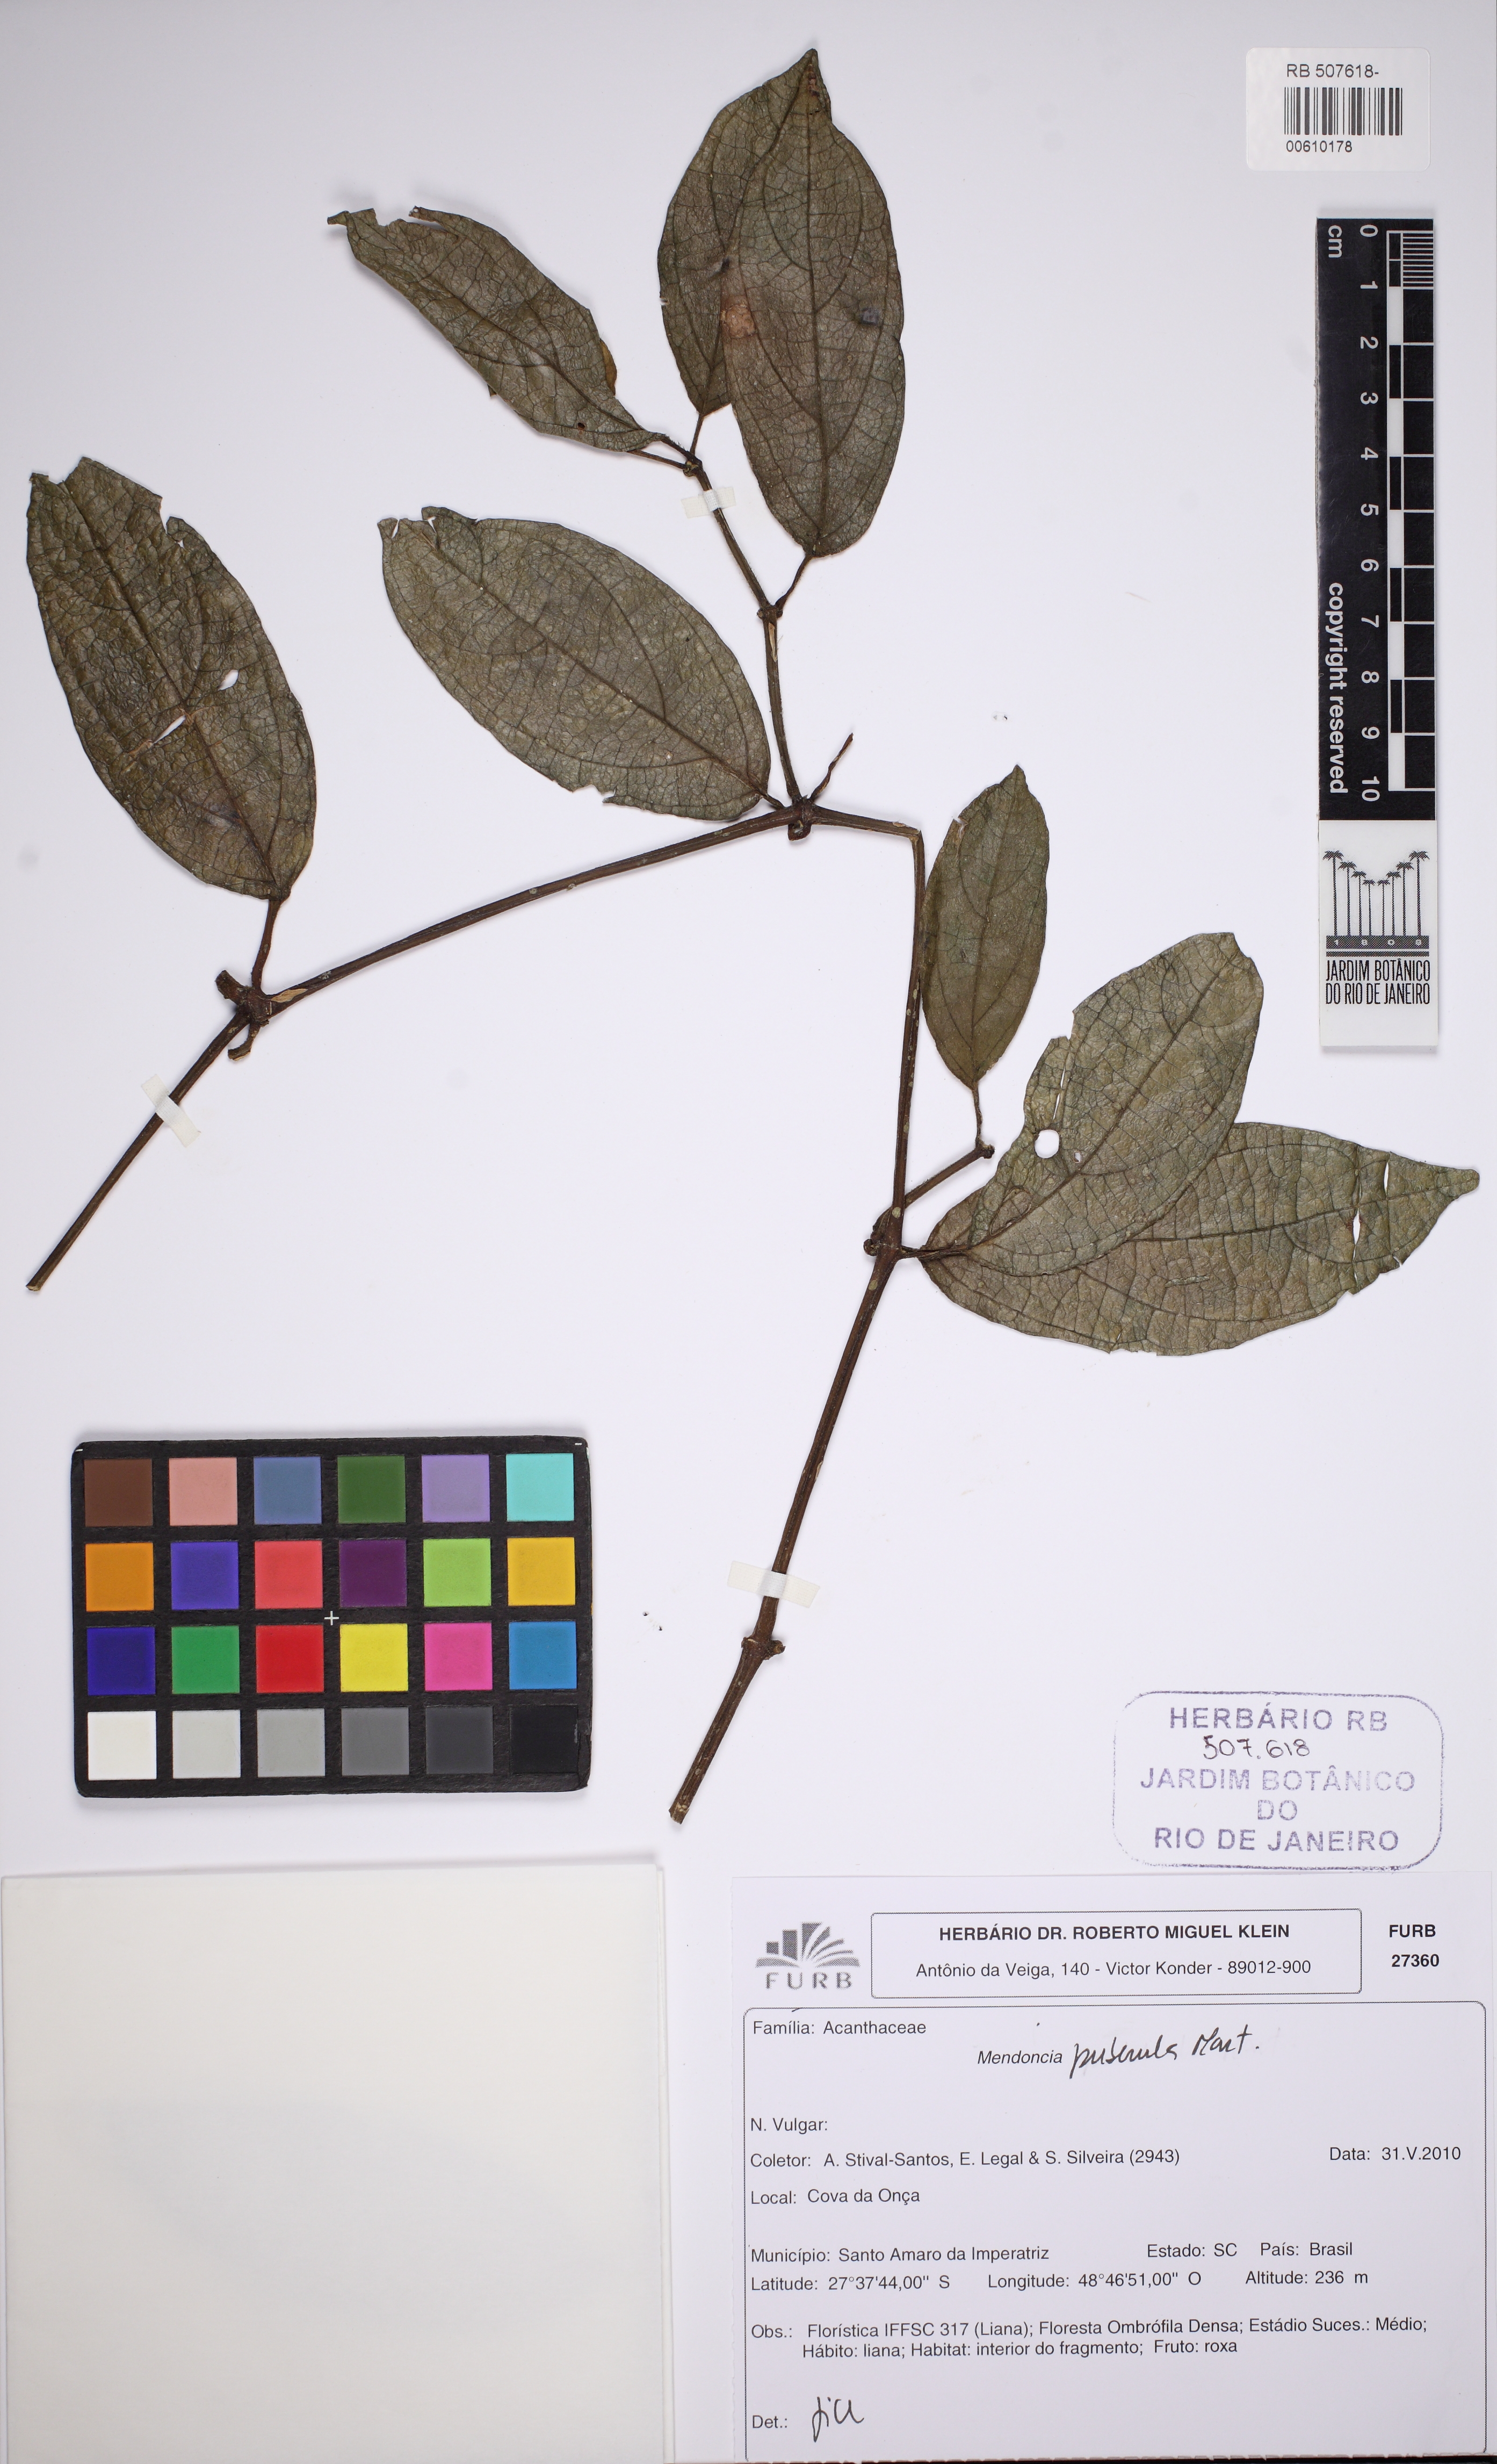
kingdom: Plantae
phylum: Tracheophyta
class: Magnoliopsida
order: Lamiales
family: Acanthaceae
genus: Mendoncia
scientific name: Mendoncia puberula
